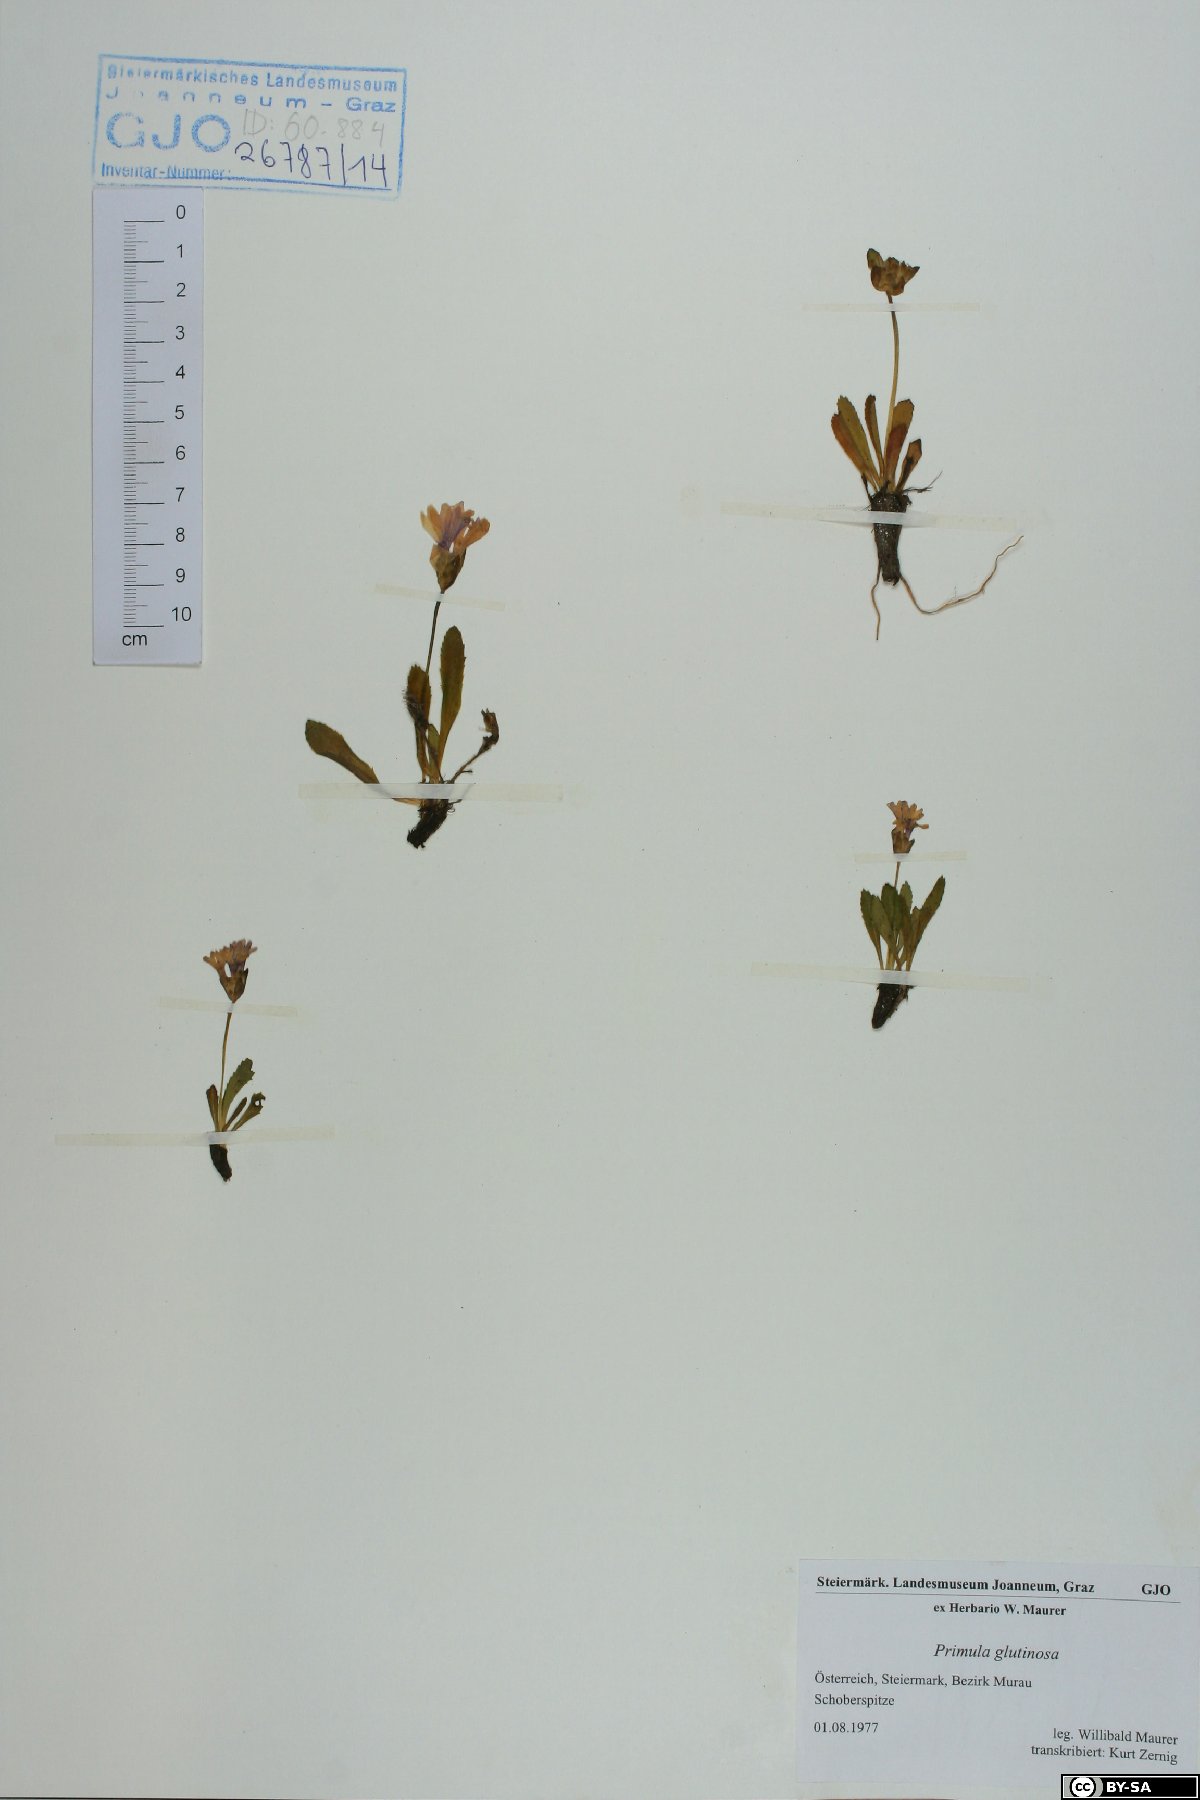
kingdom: Plantae
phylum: Tracheophyta
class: Magnoliopsida
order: Ericales
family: Primulaceae
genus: Primula
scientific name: Primula glutinosa
